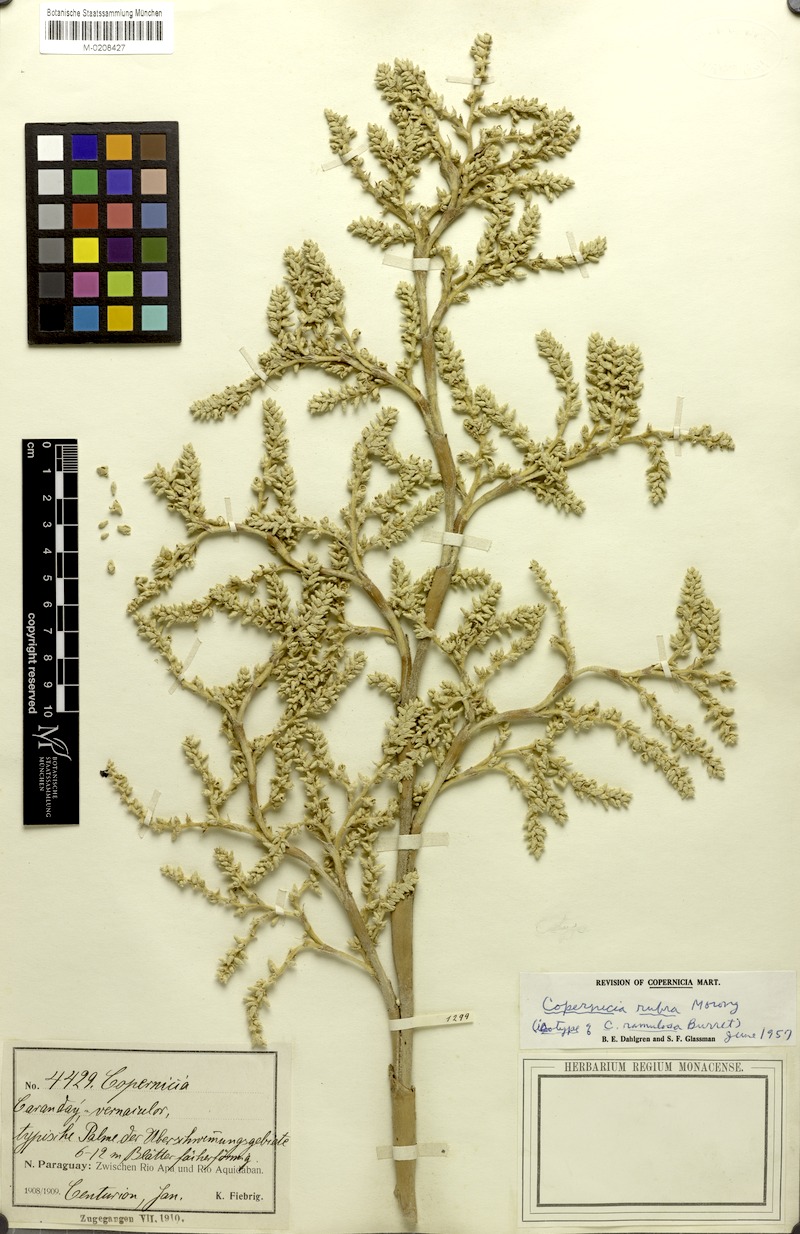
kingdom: Plantae
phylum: Tracheophyta
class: Liliopsida
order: Arecales
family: Arecaceae
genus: Copernicia
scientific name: Copernicia alba
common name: Caranday palm
